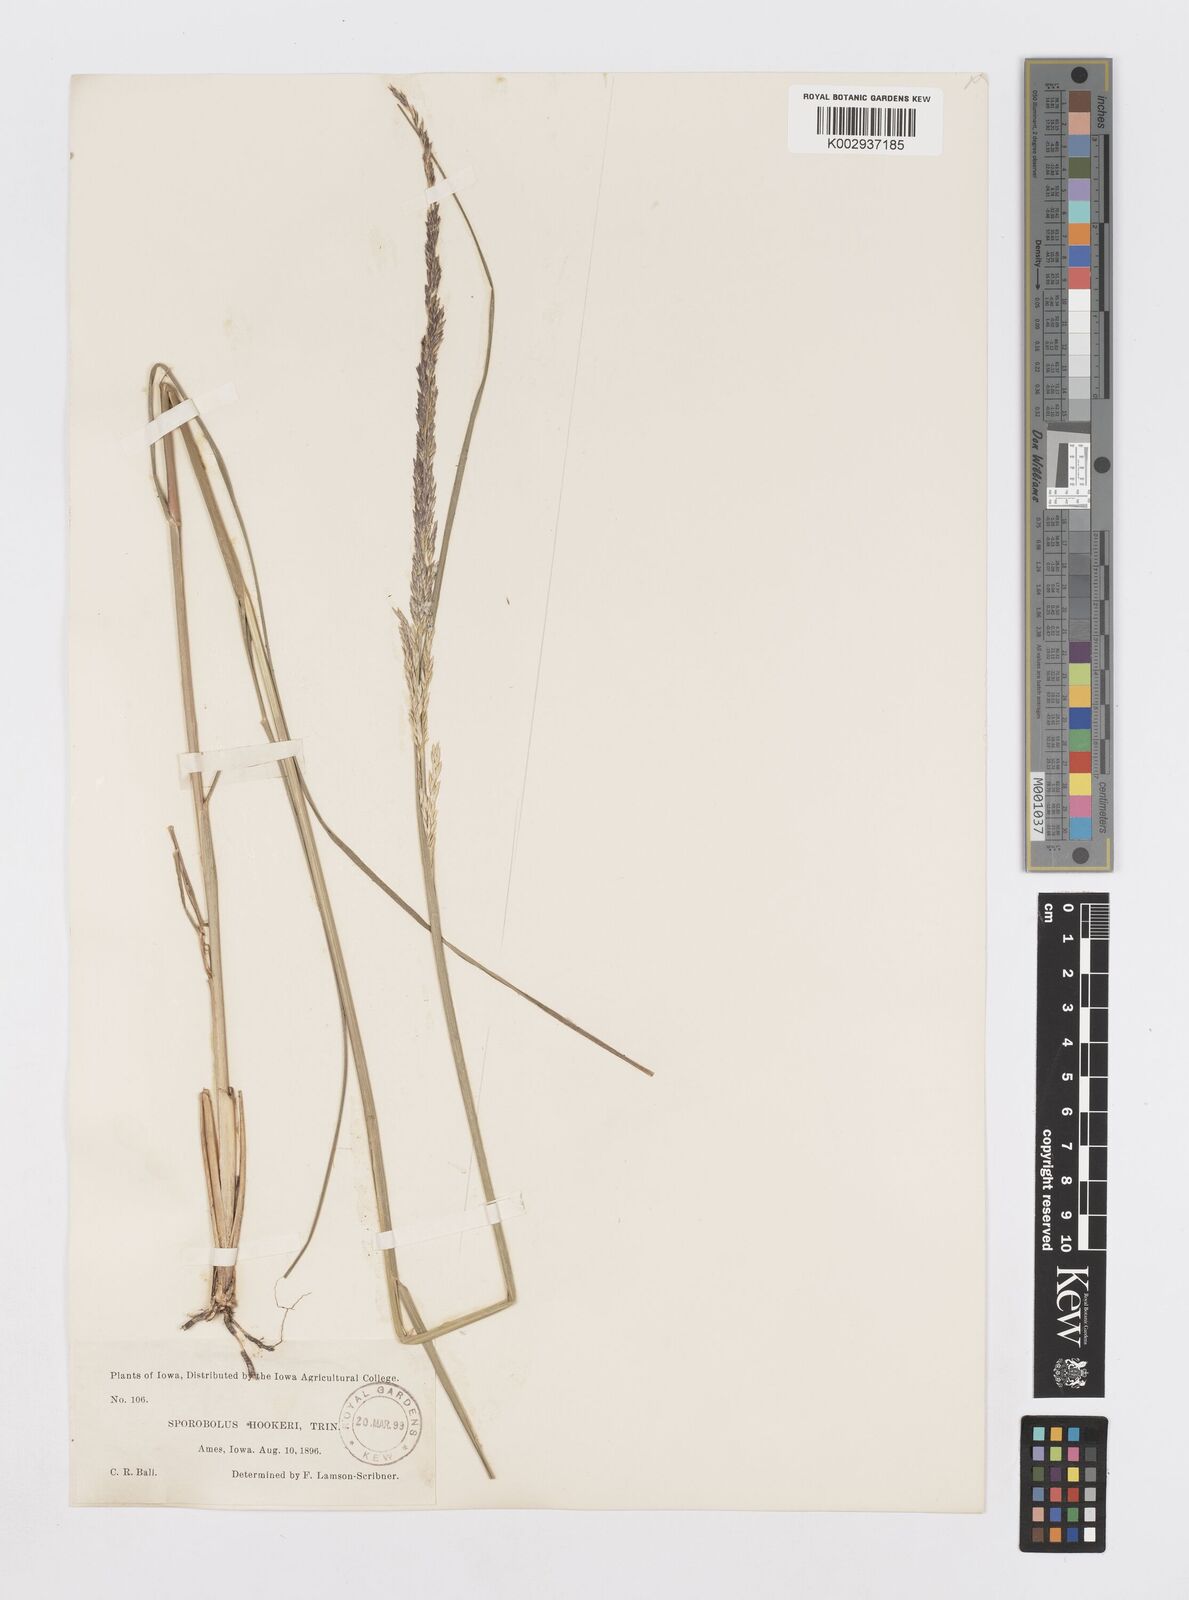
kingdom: Plantae
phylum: Tracheophyta
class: Liliopsida
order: Poales
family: Poaceae
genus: Sporobolus
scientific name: Sporobolus compositus
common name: Rough dropseed
